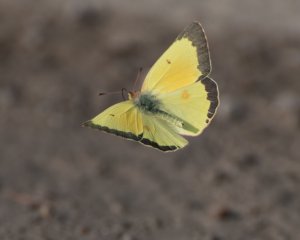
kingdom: Animalia
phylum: Arthropoda
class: Insecta
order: Lepidoptera
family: Pieridae
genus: Colias
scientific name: Colias eurytheme
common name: Orange Sulphur
